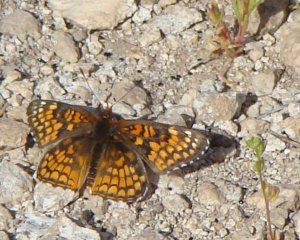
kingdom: Animalia
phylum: Arthropoda
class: Insecta
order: Lepidoptera
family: Nymphalidae
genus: Chlosyne
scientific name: Chlosyne acastus
